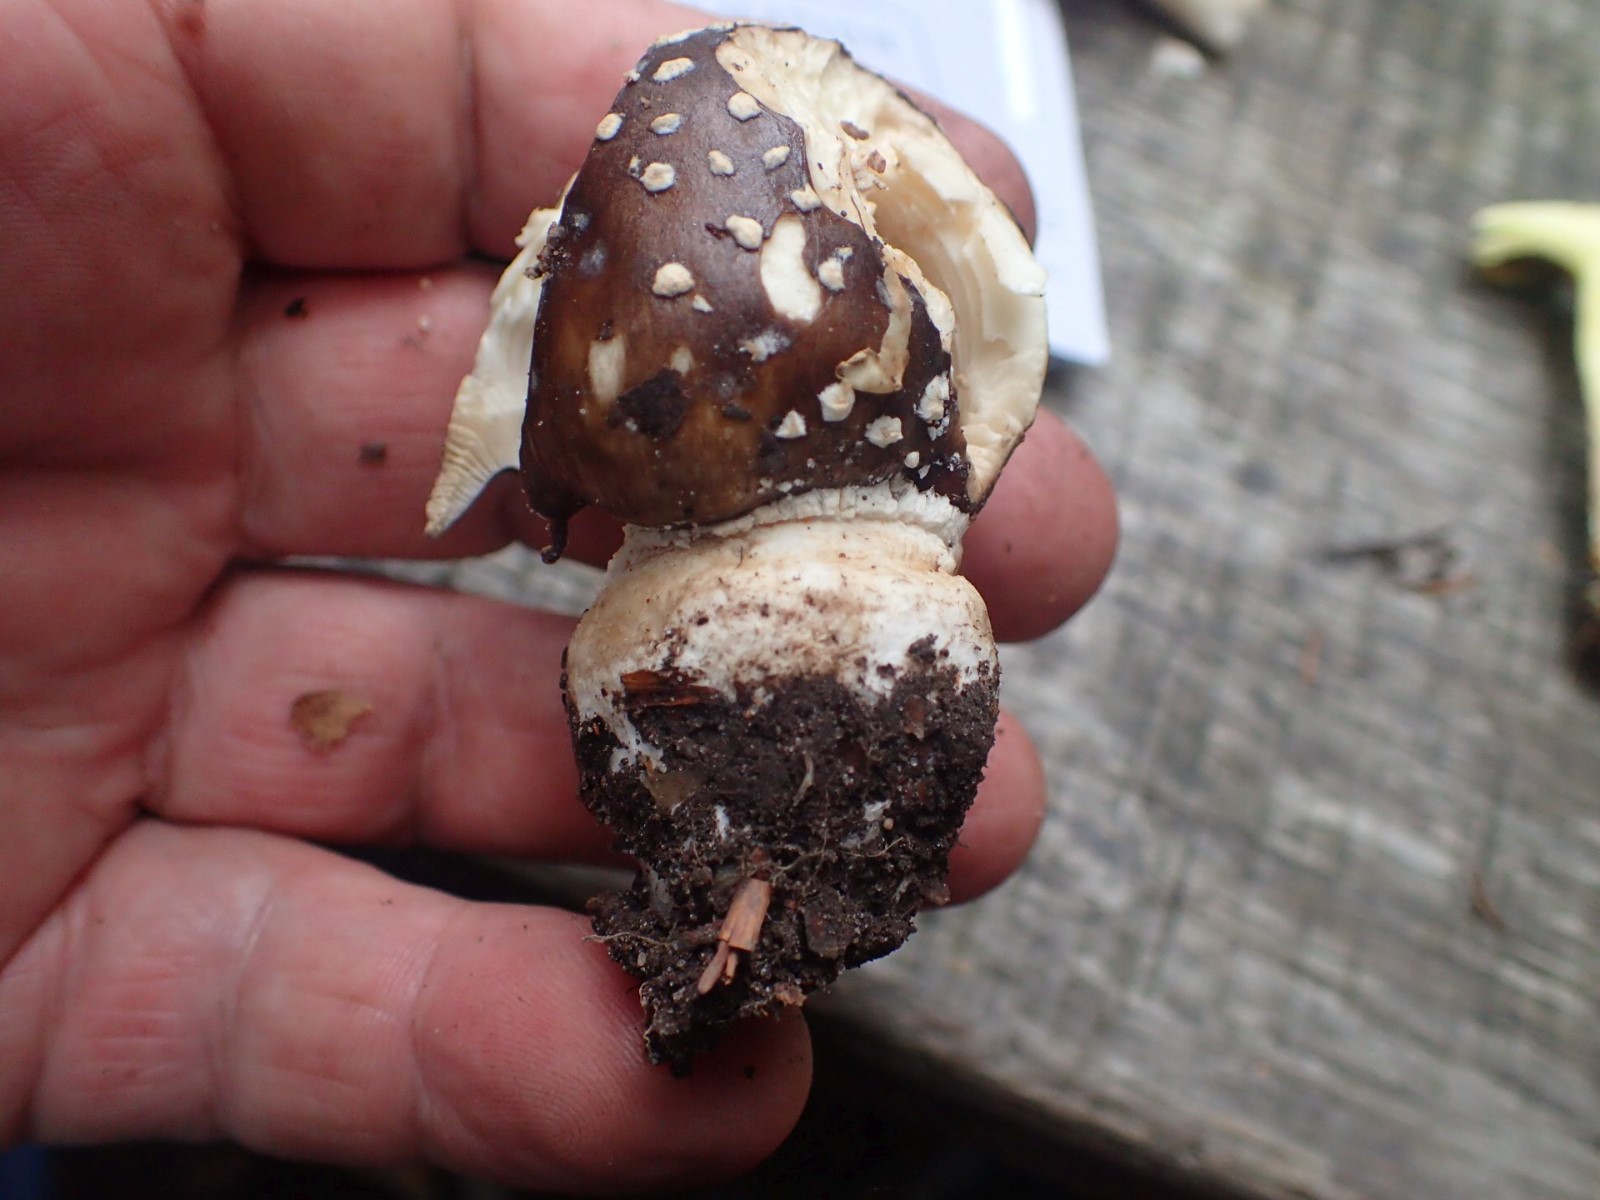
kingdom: Fungi
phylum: Basidiomycota
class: Agaricomycetes
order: Agaricales
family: Amanitaceae
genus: Amanita
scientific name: Amanita pantherina
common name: panter-fluesvamp
